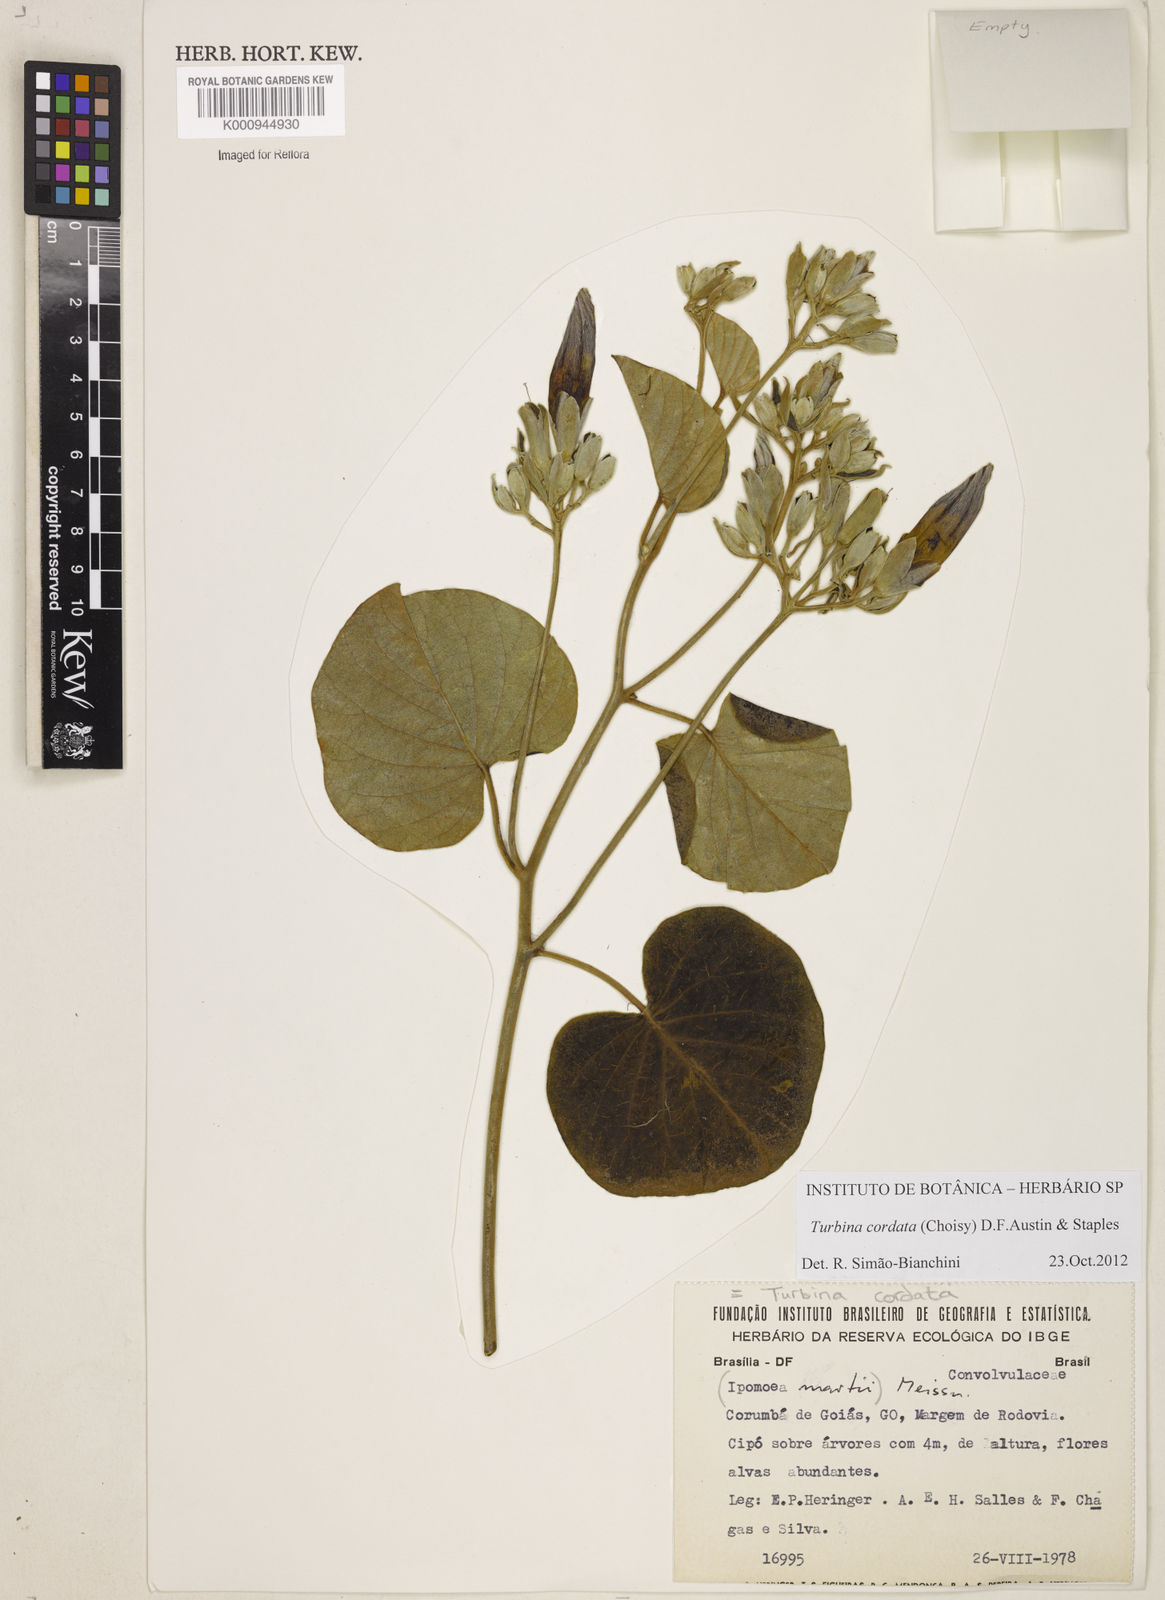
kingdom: Animalia
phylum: Mollusca
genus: Turbina
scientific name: Turbina
